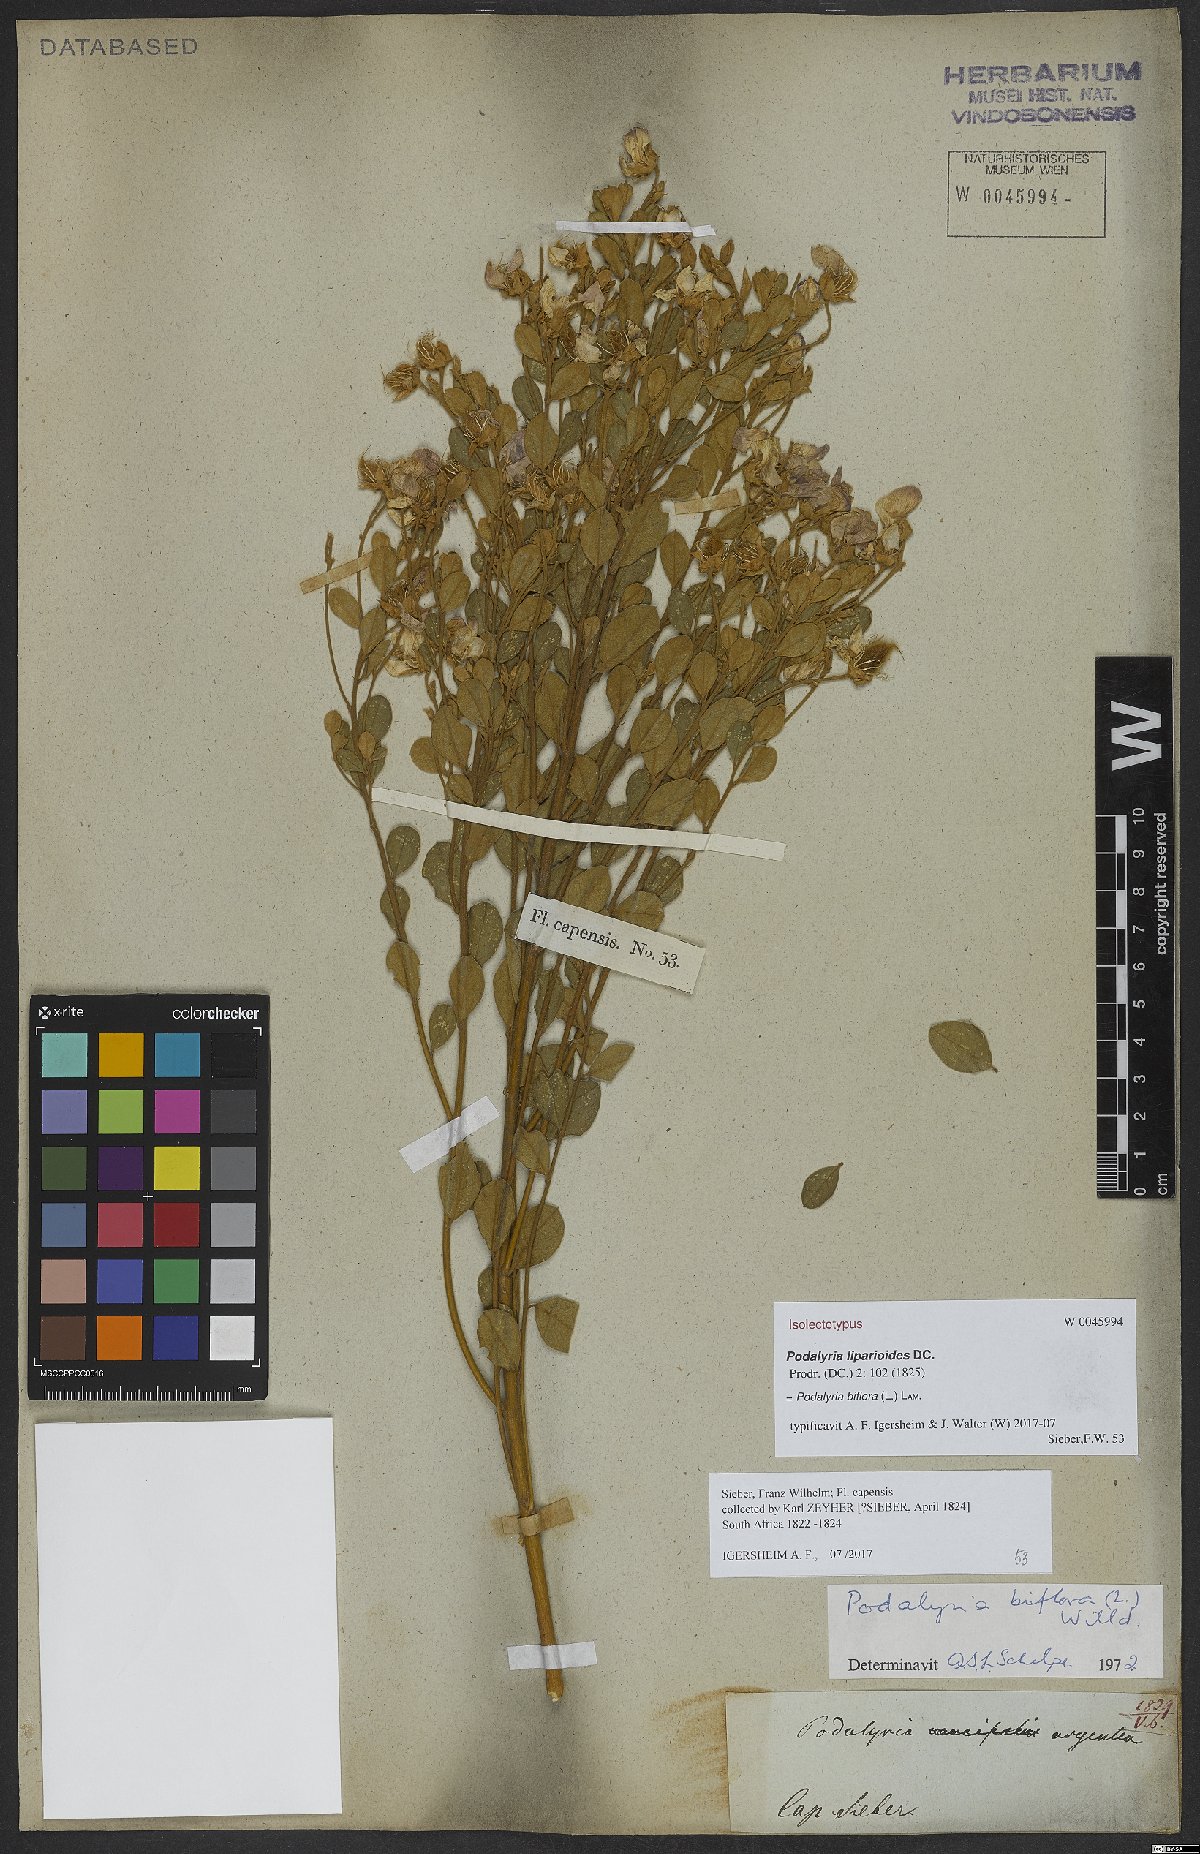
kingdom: Plantae
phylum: Tracheophyta
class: Magnoliopsida
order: Fabales
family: Fabaceae
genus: Podalyria
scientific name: Podalyria biflora
